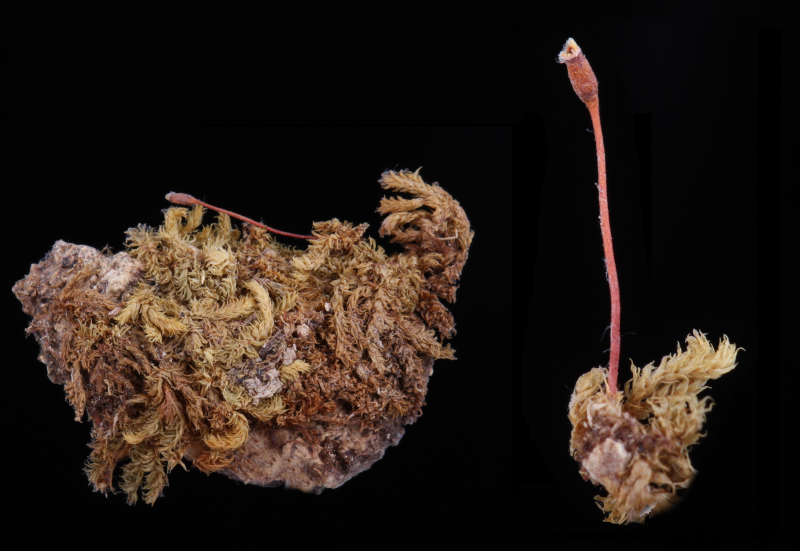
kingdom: Plantae
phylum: Bryophyta
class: Bryopsida
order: Hypnales
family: Sematophyllaceae
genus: Macrohymenium
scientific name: Macrohymenium mitratum
